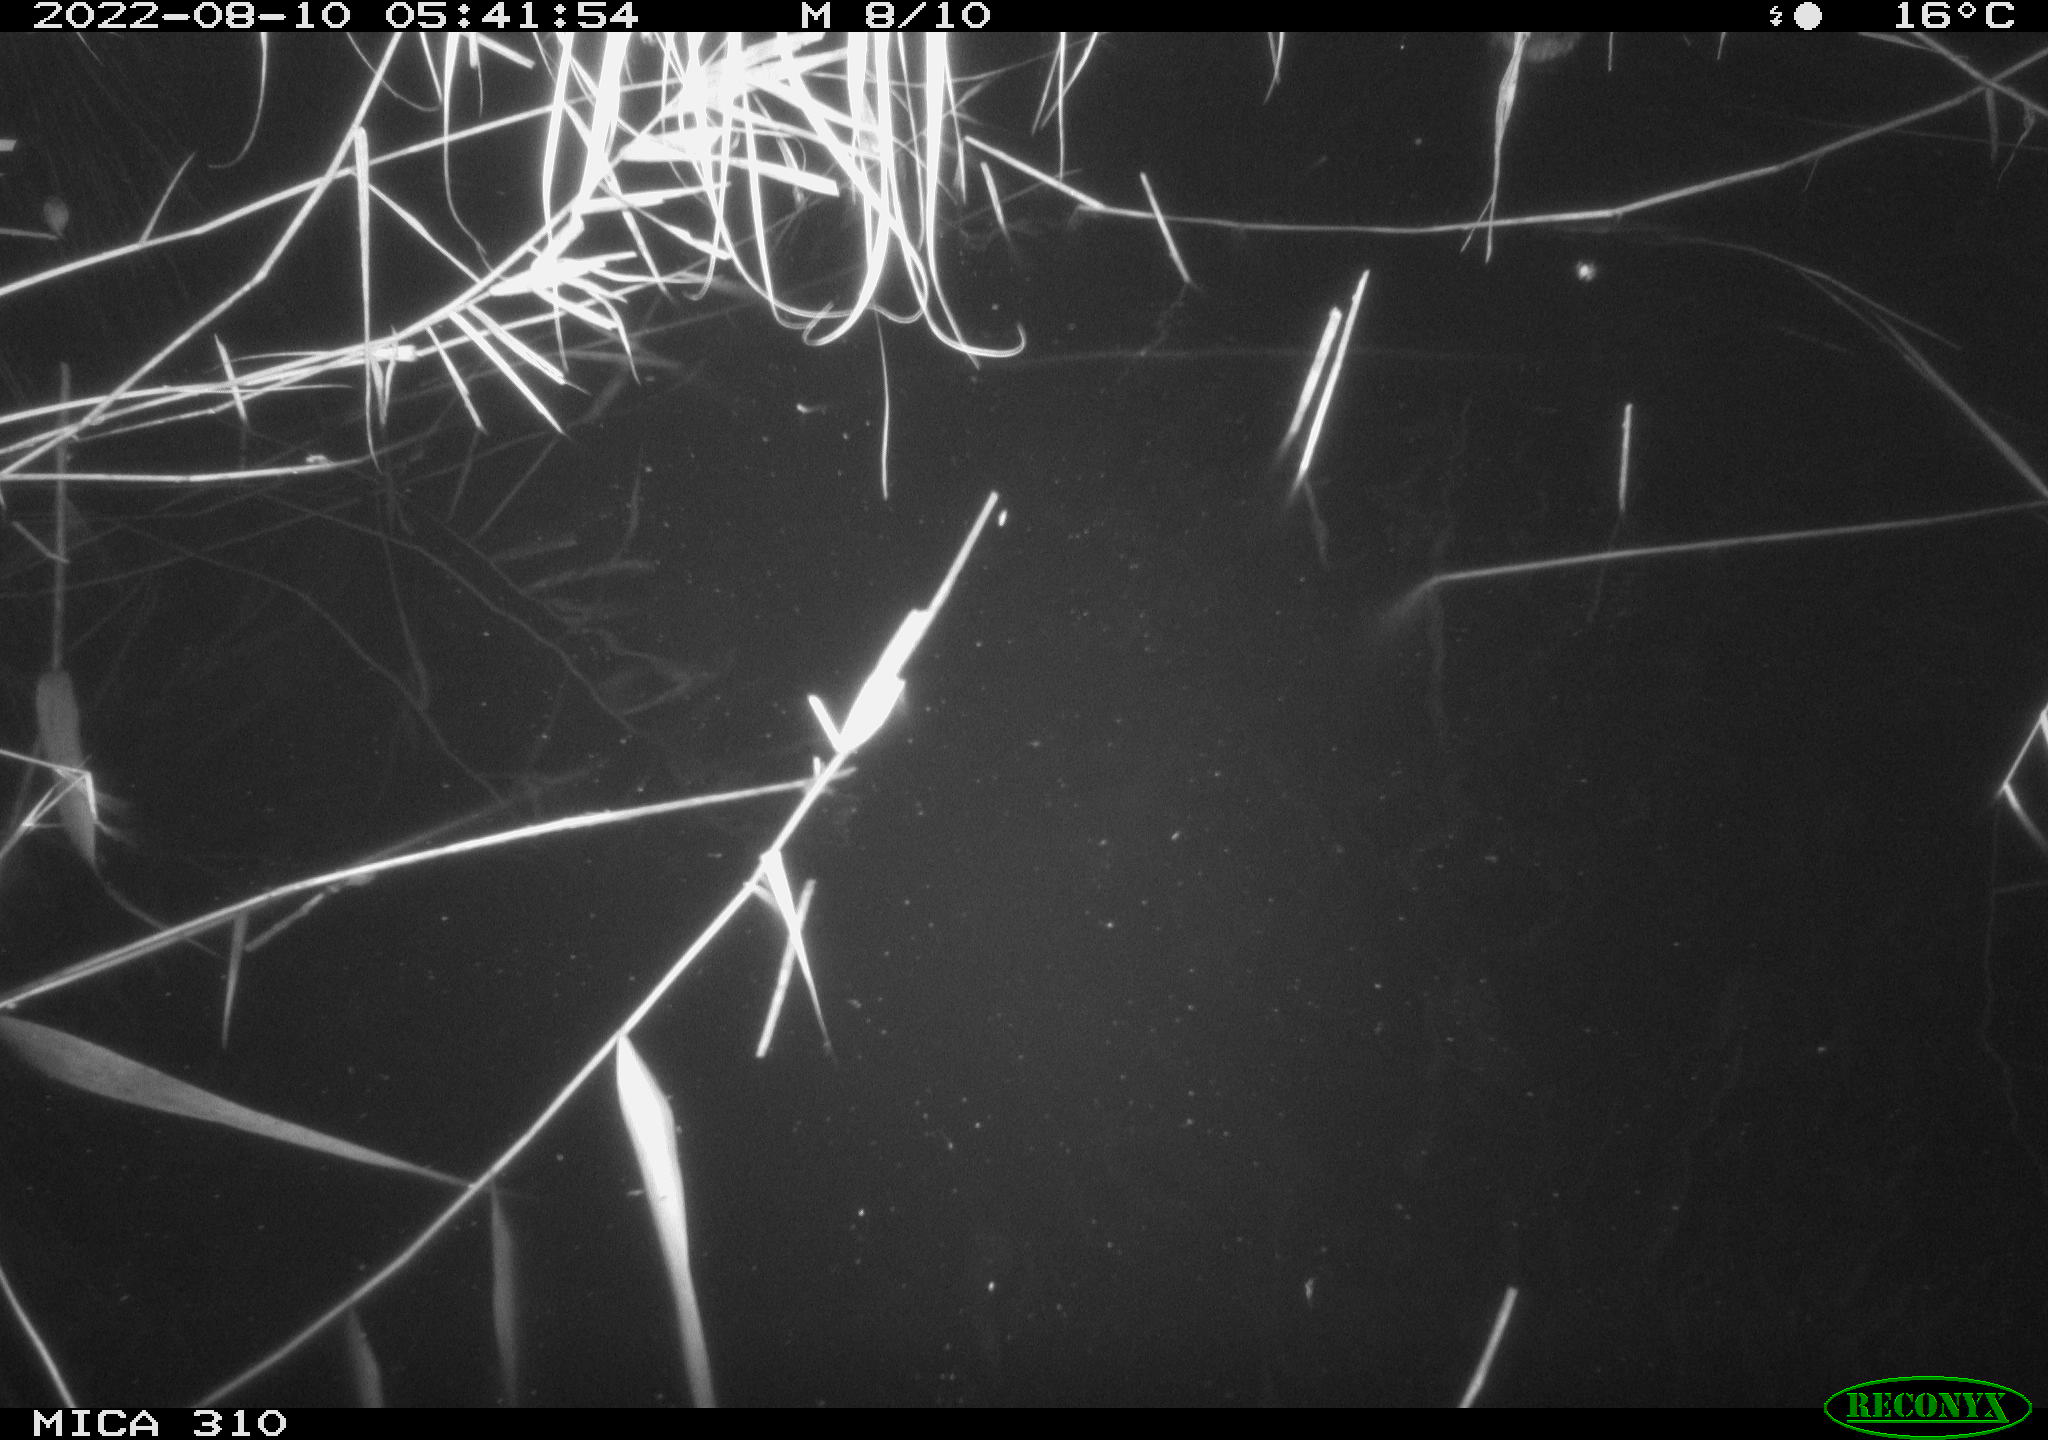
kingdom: Animalia
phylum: Chordata
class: Aves
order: Gruiformes
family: Rallidae
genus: Gallinula
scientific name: Gallinula chloropus
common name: Common moorhen
